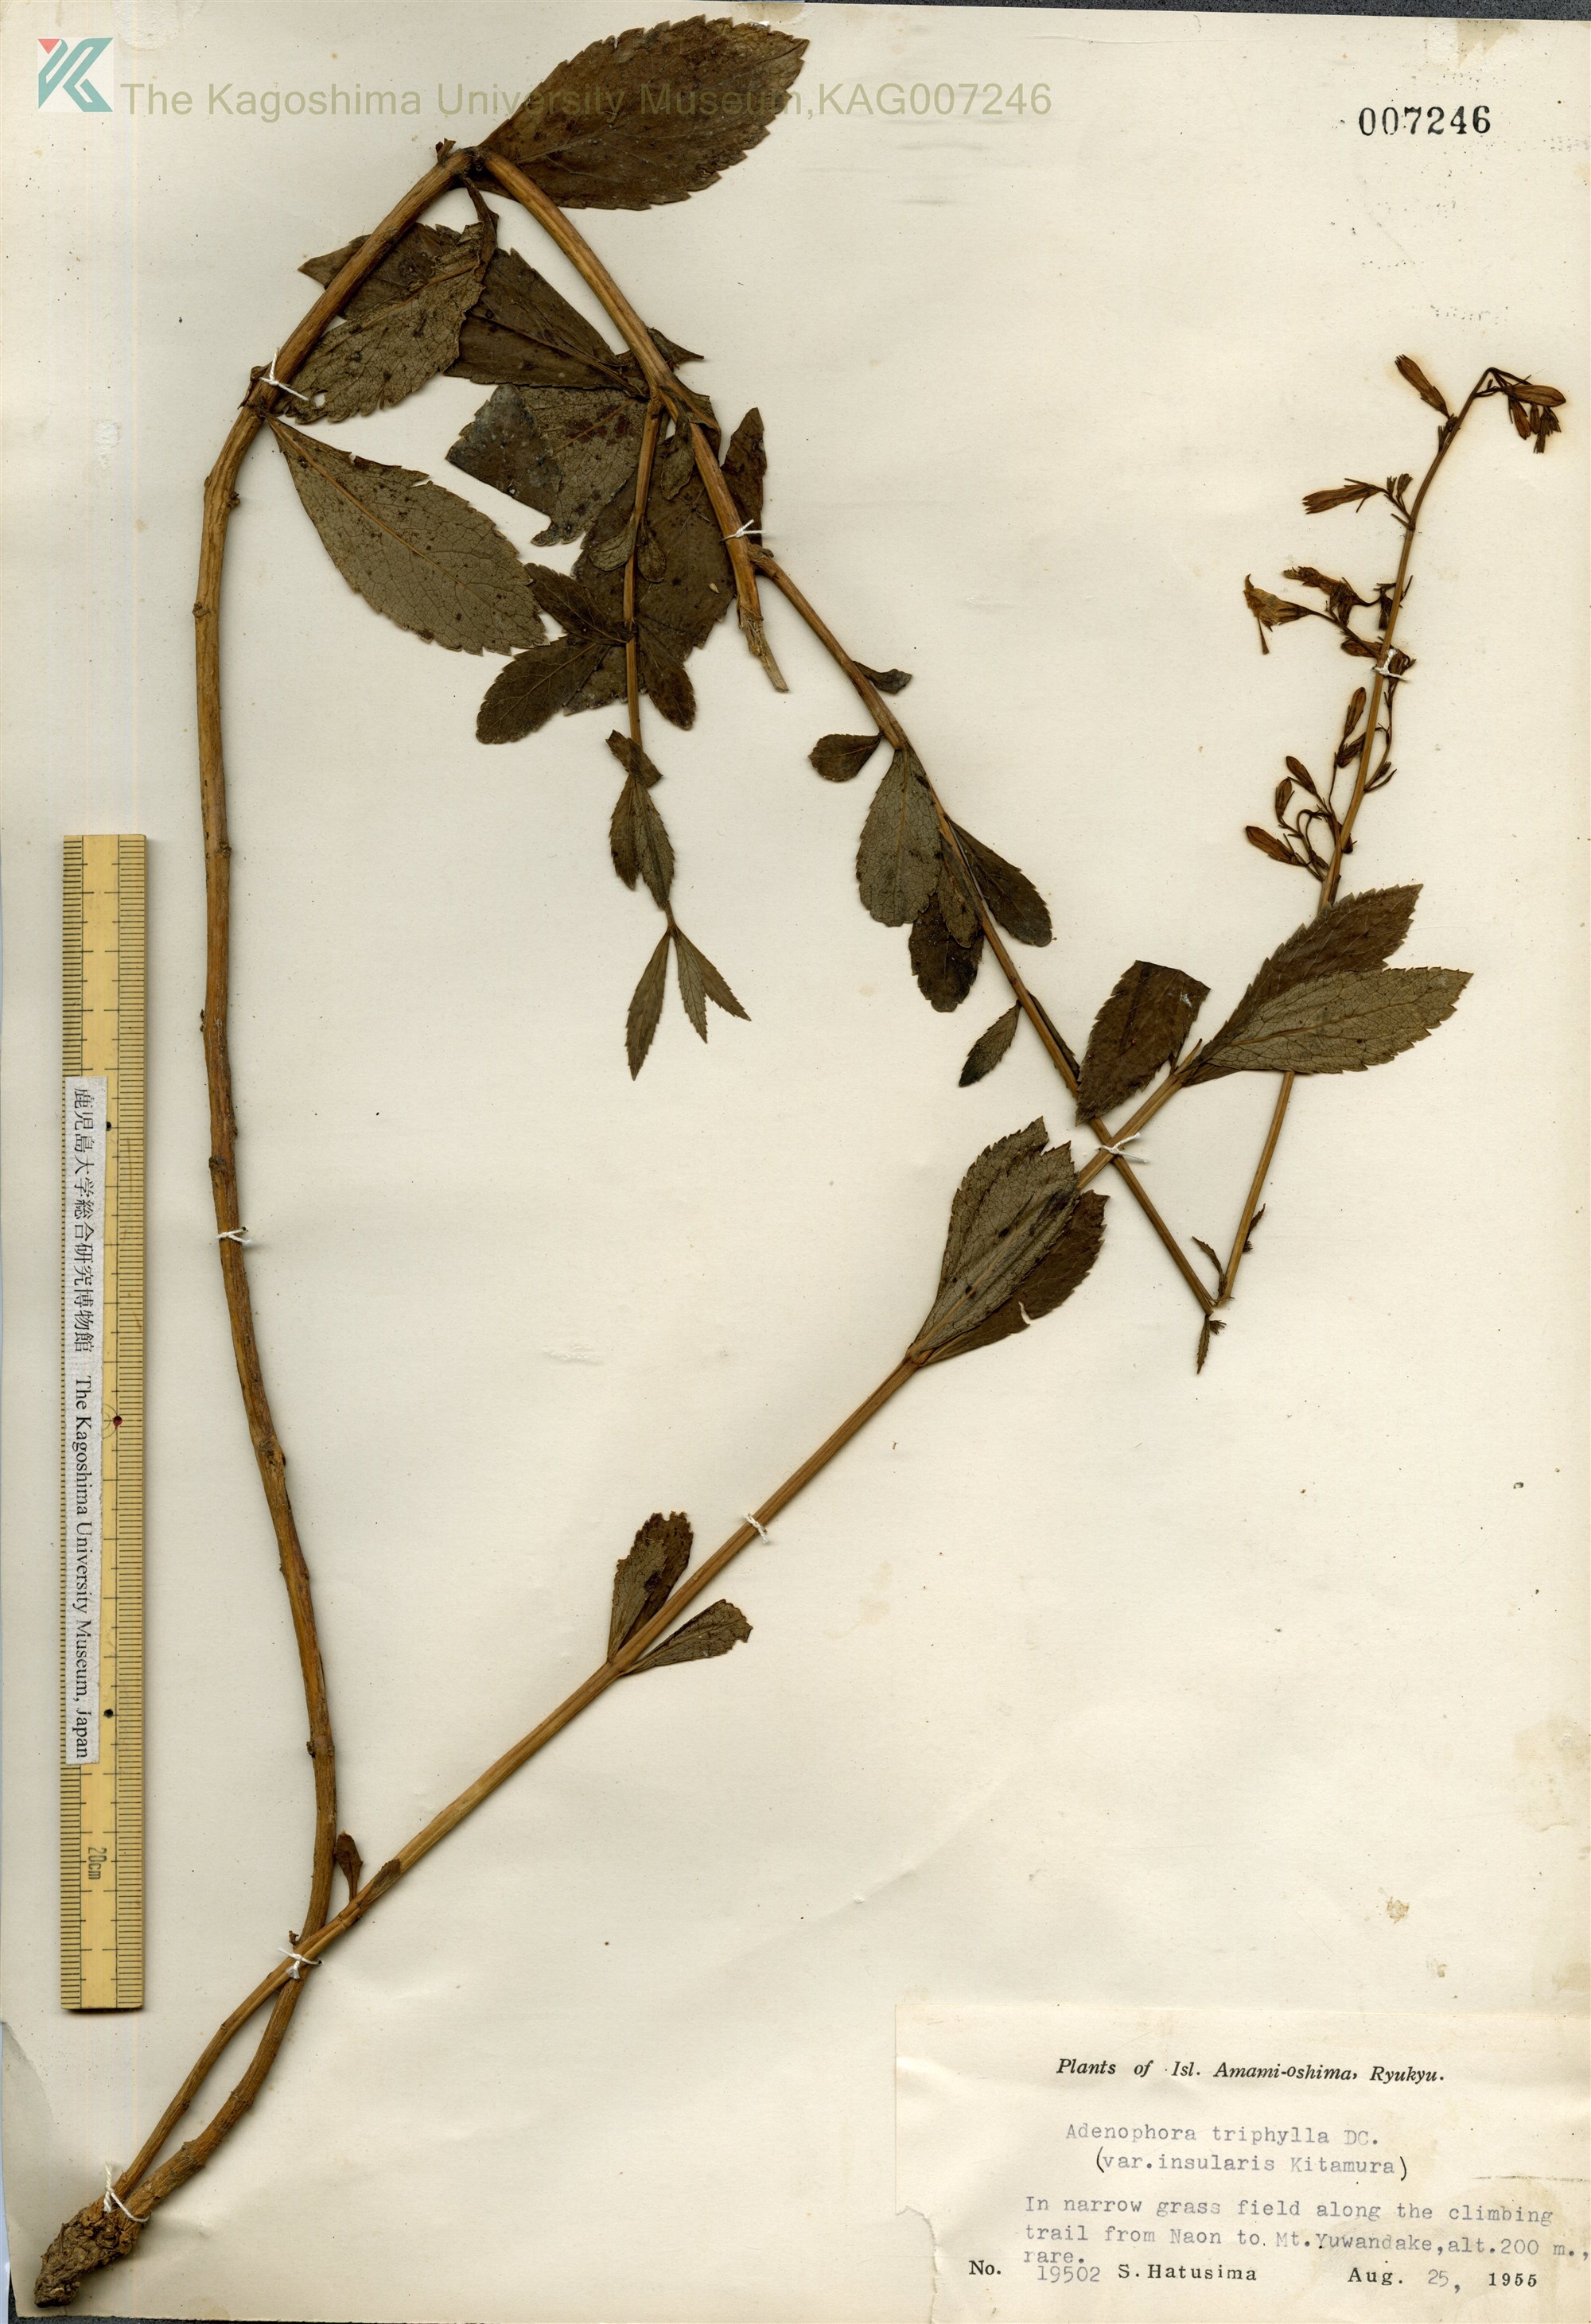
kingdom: Plantae
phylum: Tracheophyta
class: Magnoliopsida
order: Asterales
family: Campanulaceae
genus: Adenophora
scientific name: Adenophora tashiroi
